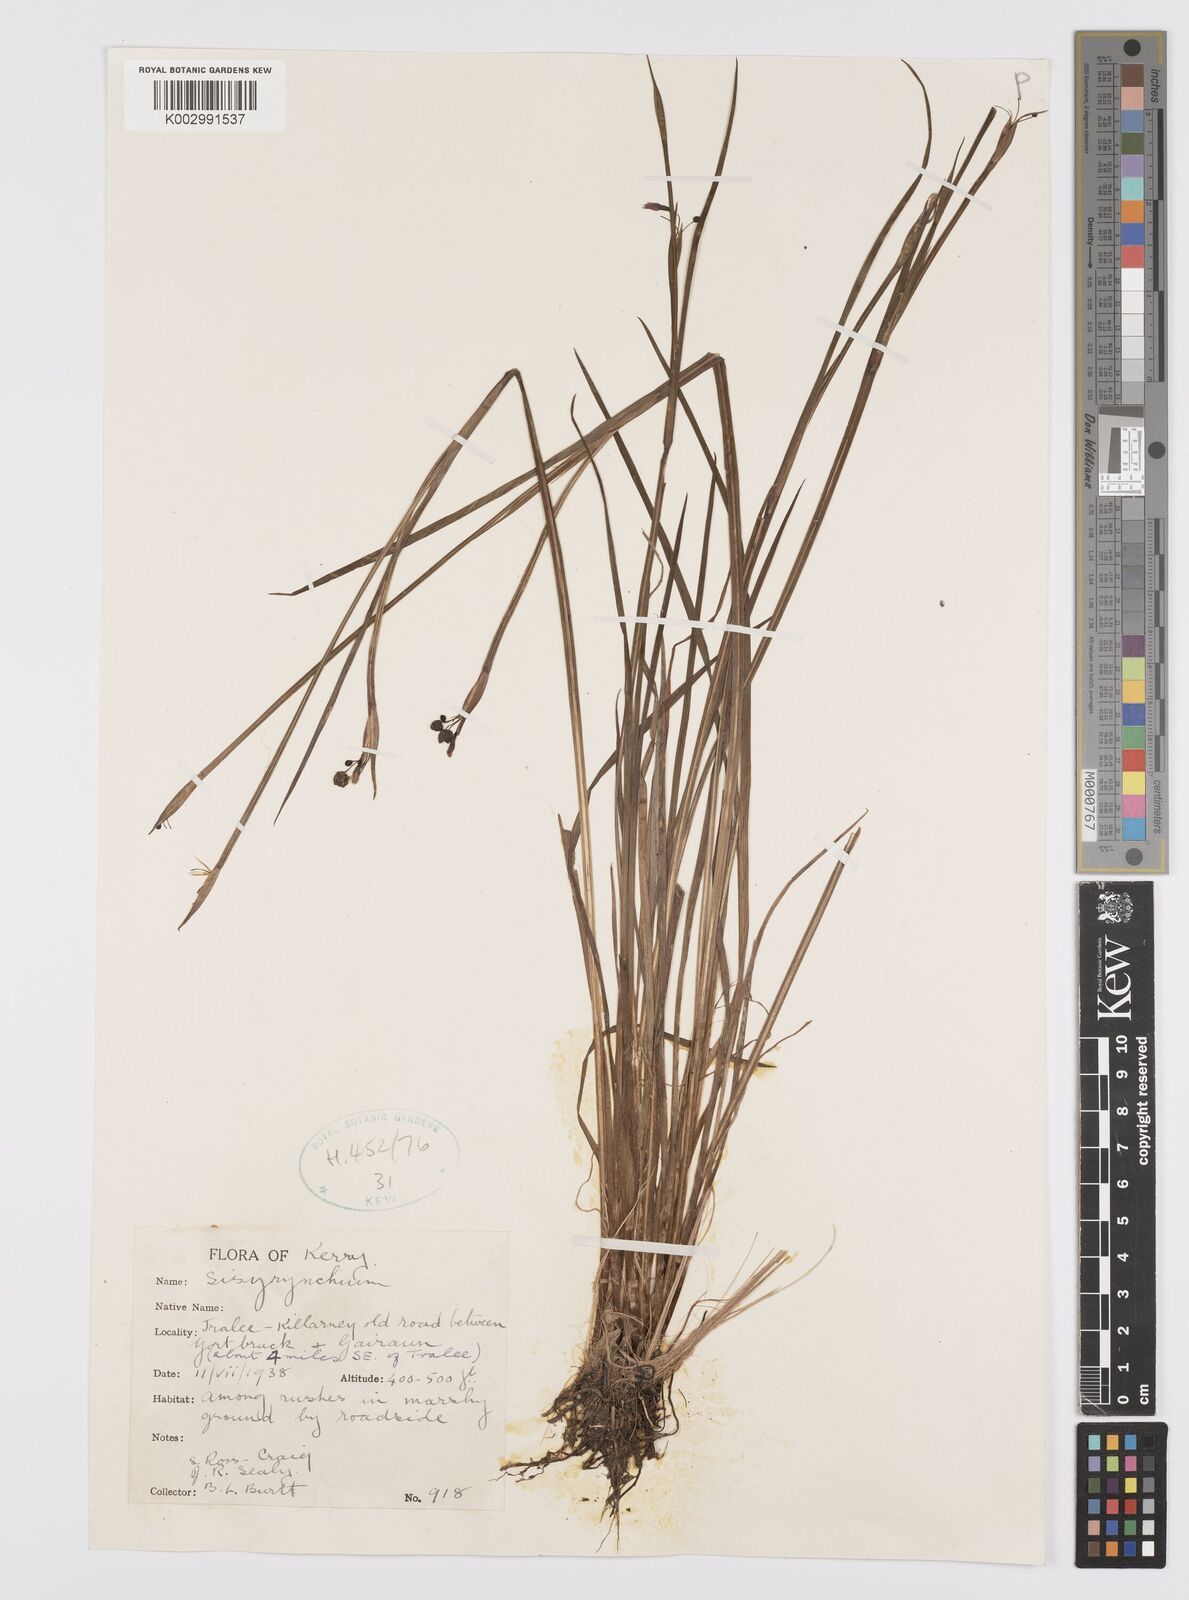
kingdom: Plantae
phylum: Tracheophyta
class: Liliopsida
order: Asparagales
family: Iridaceae
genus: Sisyrinchium
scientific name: Sisyrinchium angustifolium
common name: Narrow-leaf blue-eyed-grass
